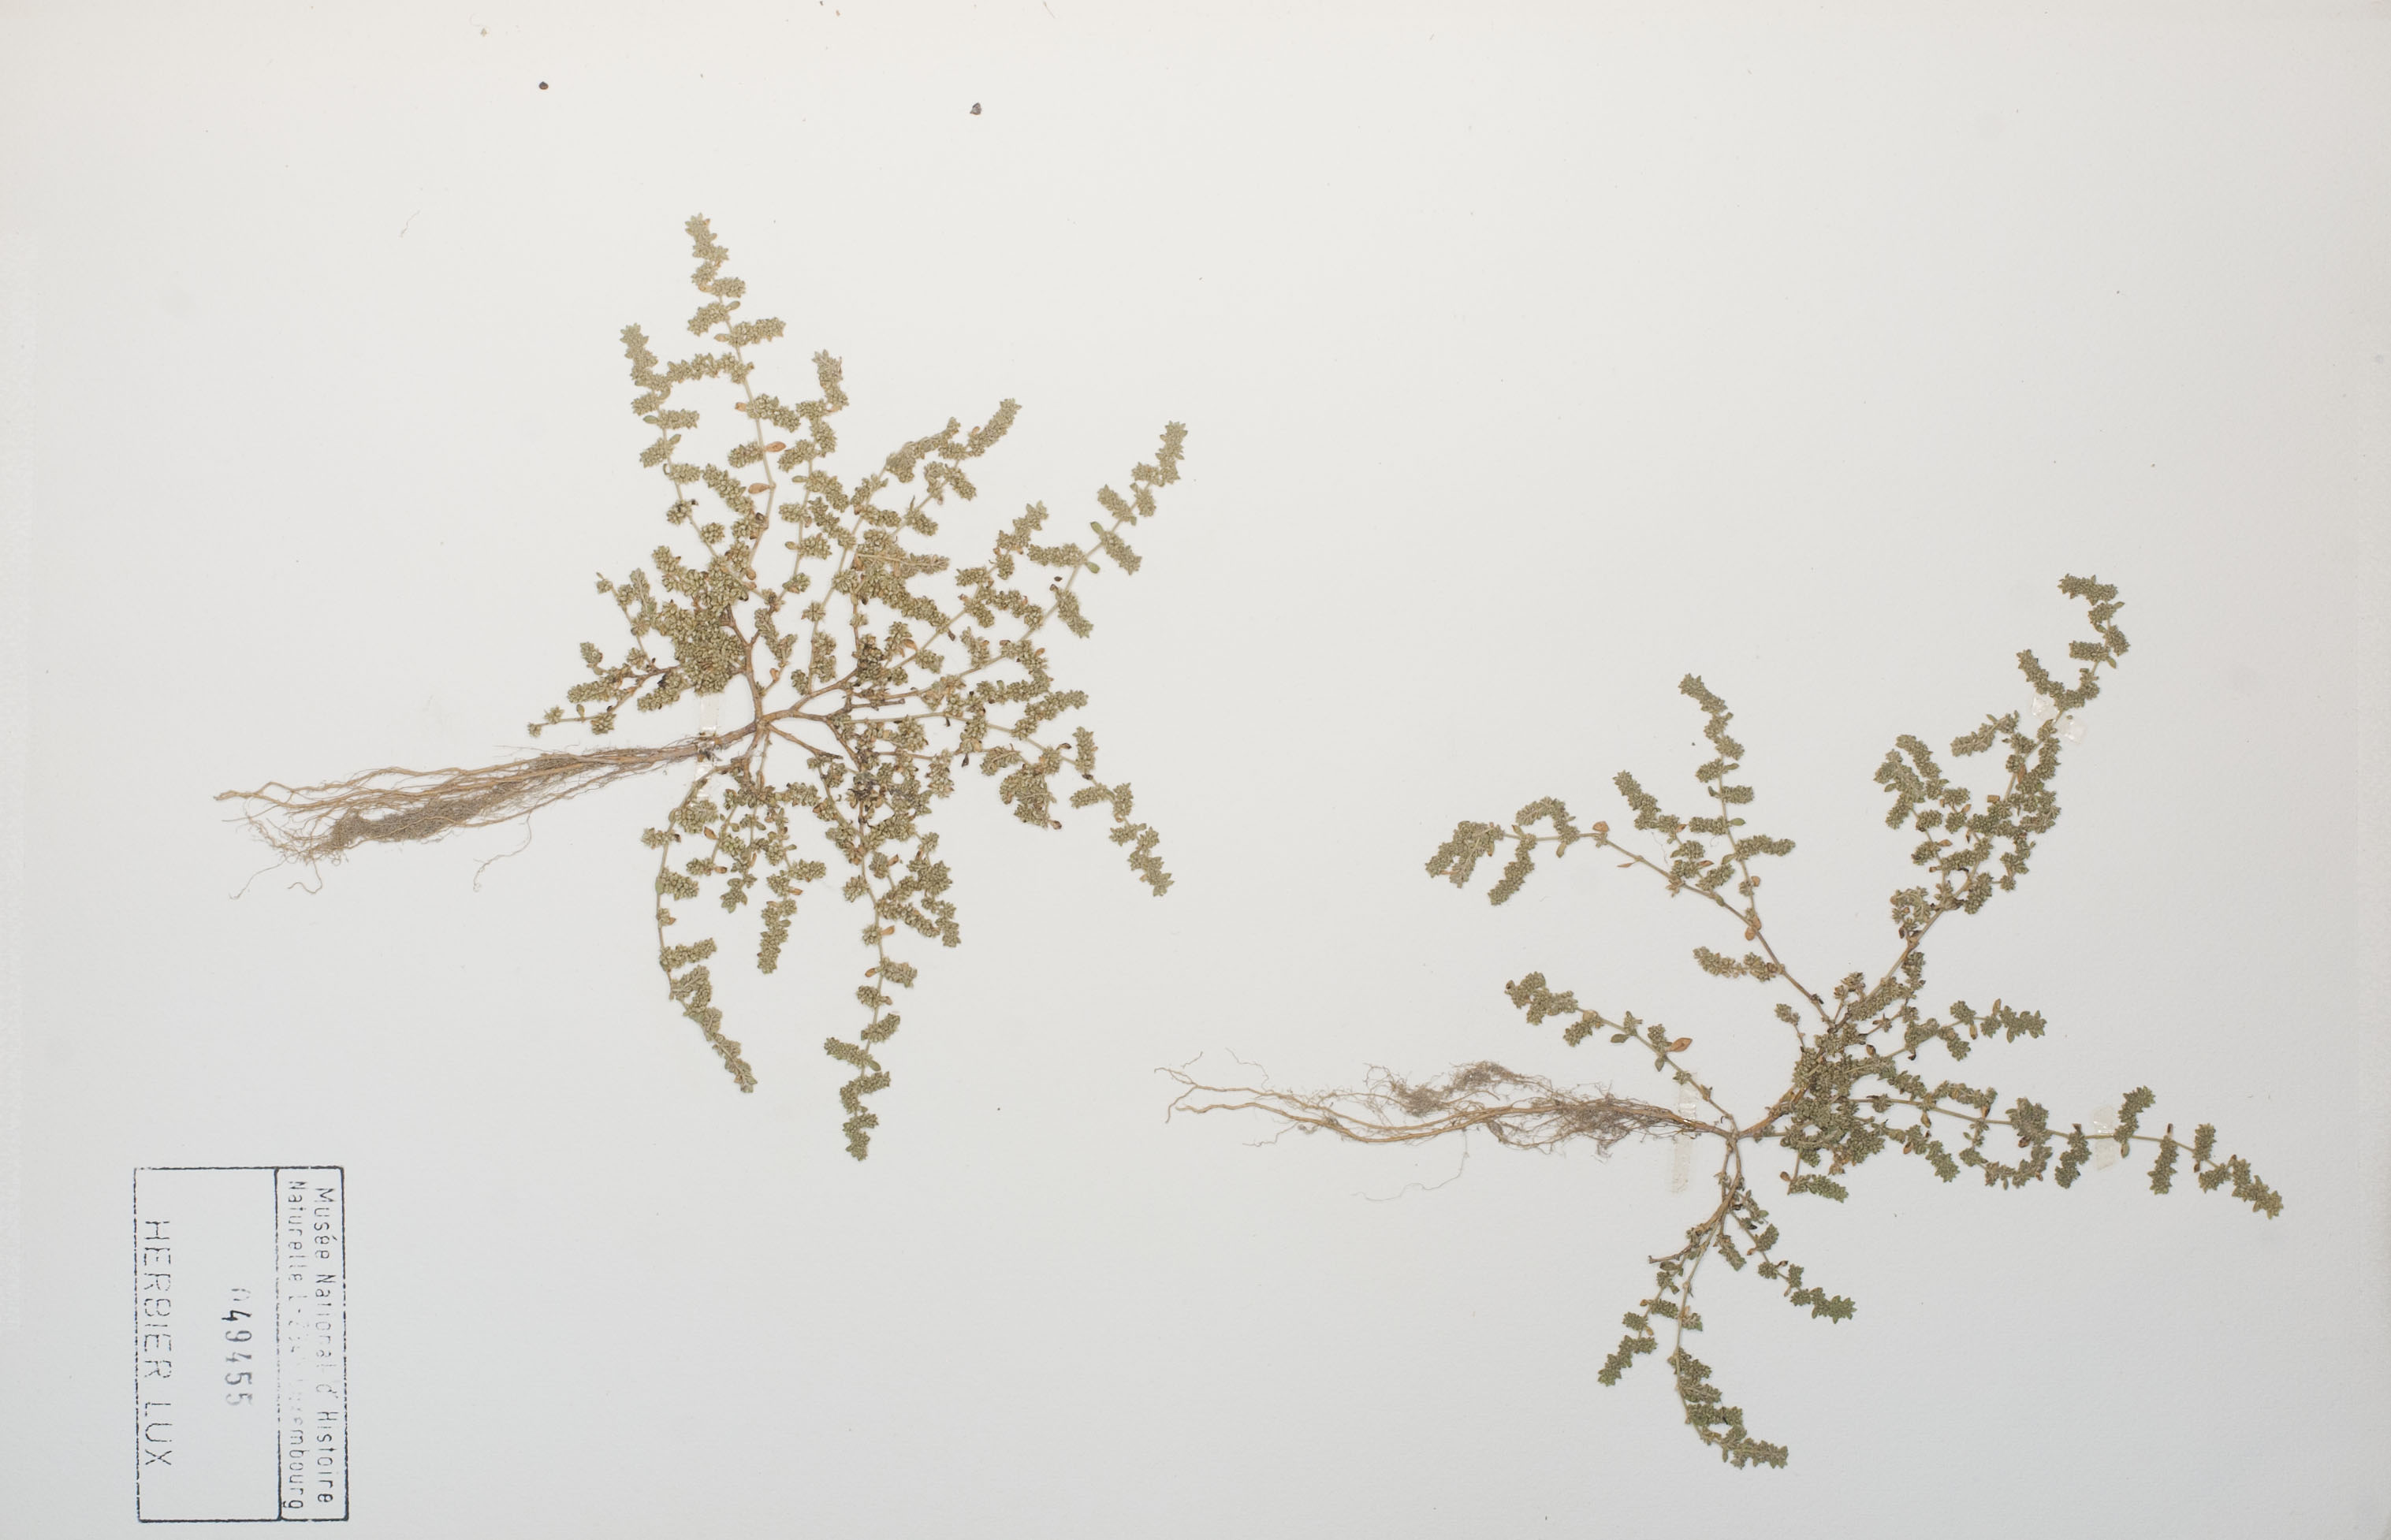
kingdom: Plantae
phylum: Tracheophyta
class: Magnoliopsida
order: Caryophyllales
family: Caryophyllaceae
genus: Herniaria
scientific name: Herniaria glabra
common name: Smooth rupturewort
